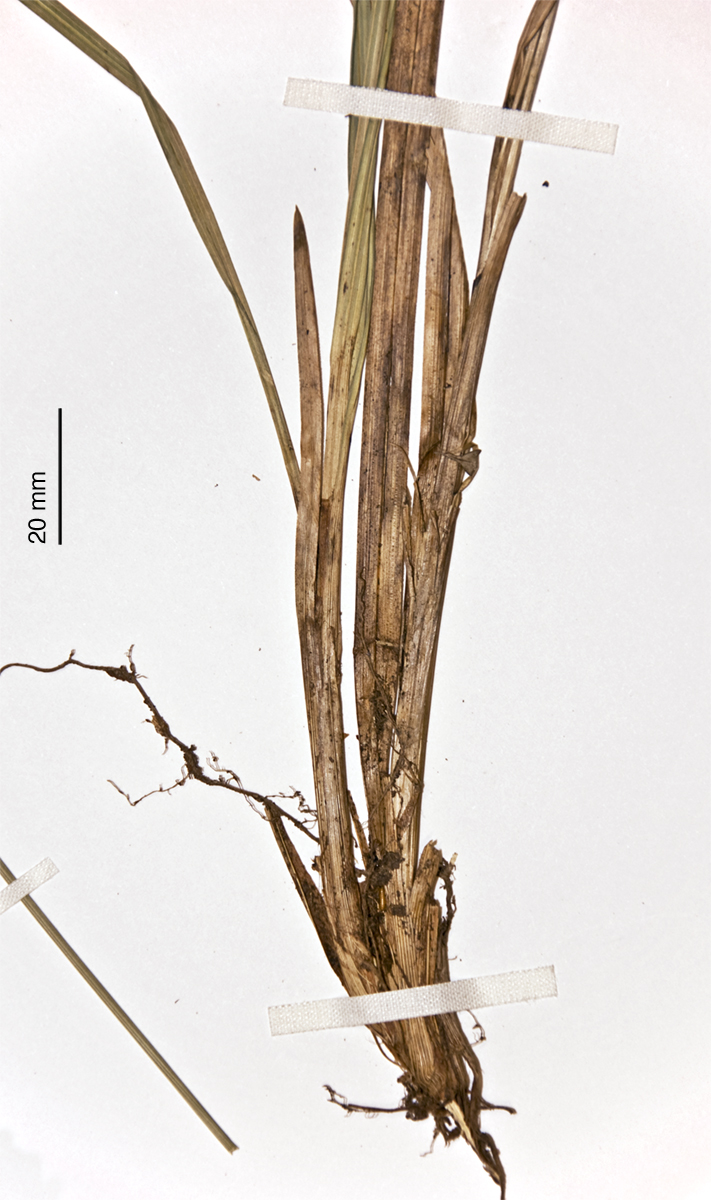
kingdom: Plantae
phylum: Tracheophyta
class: Liliopsida
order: Poales
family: Cyperaceae
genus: Carex
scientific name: Carex corynoidea
